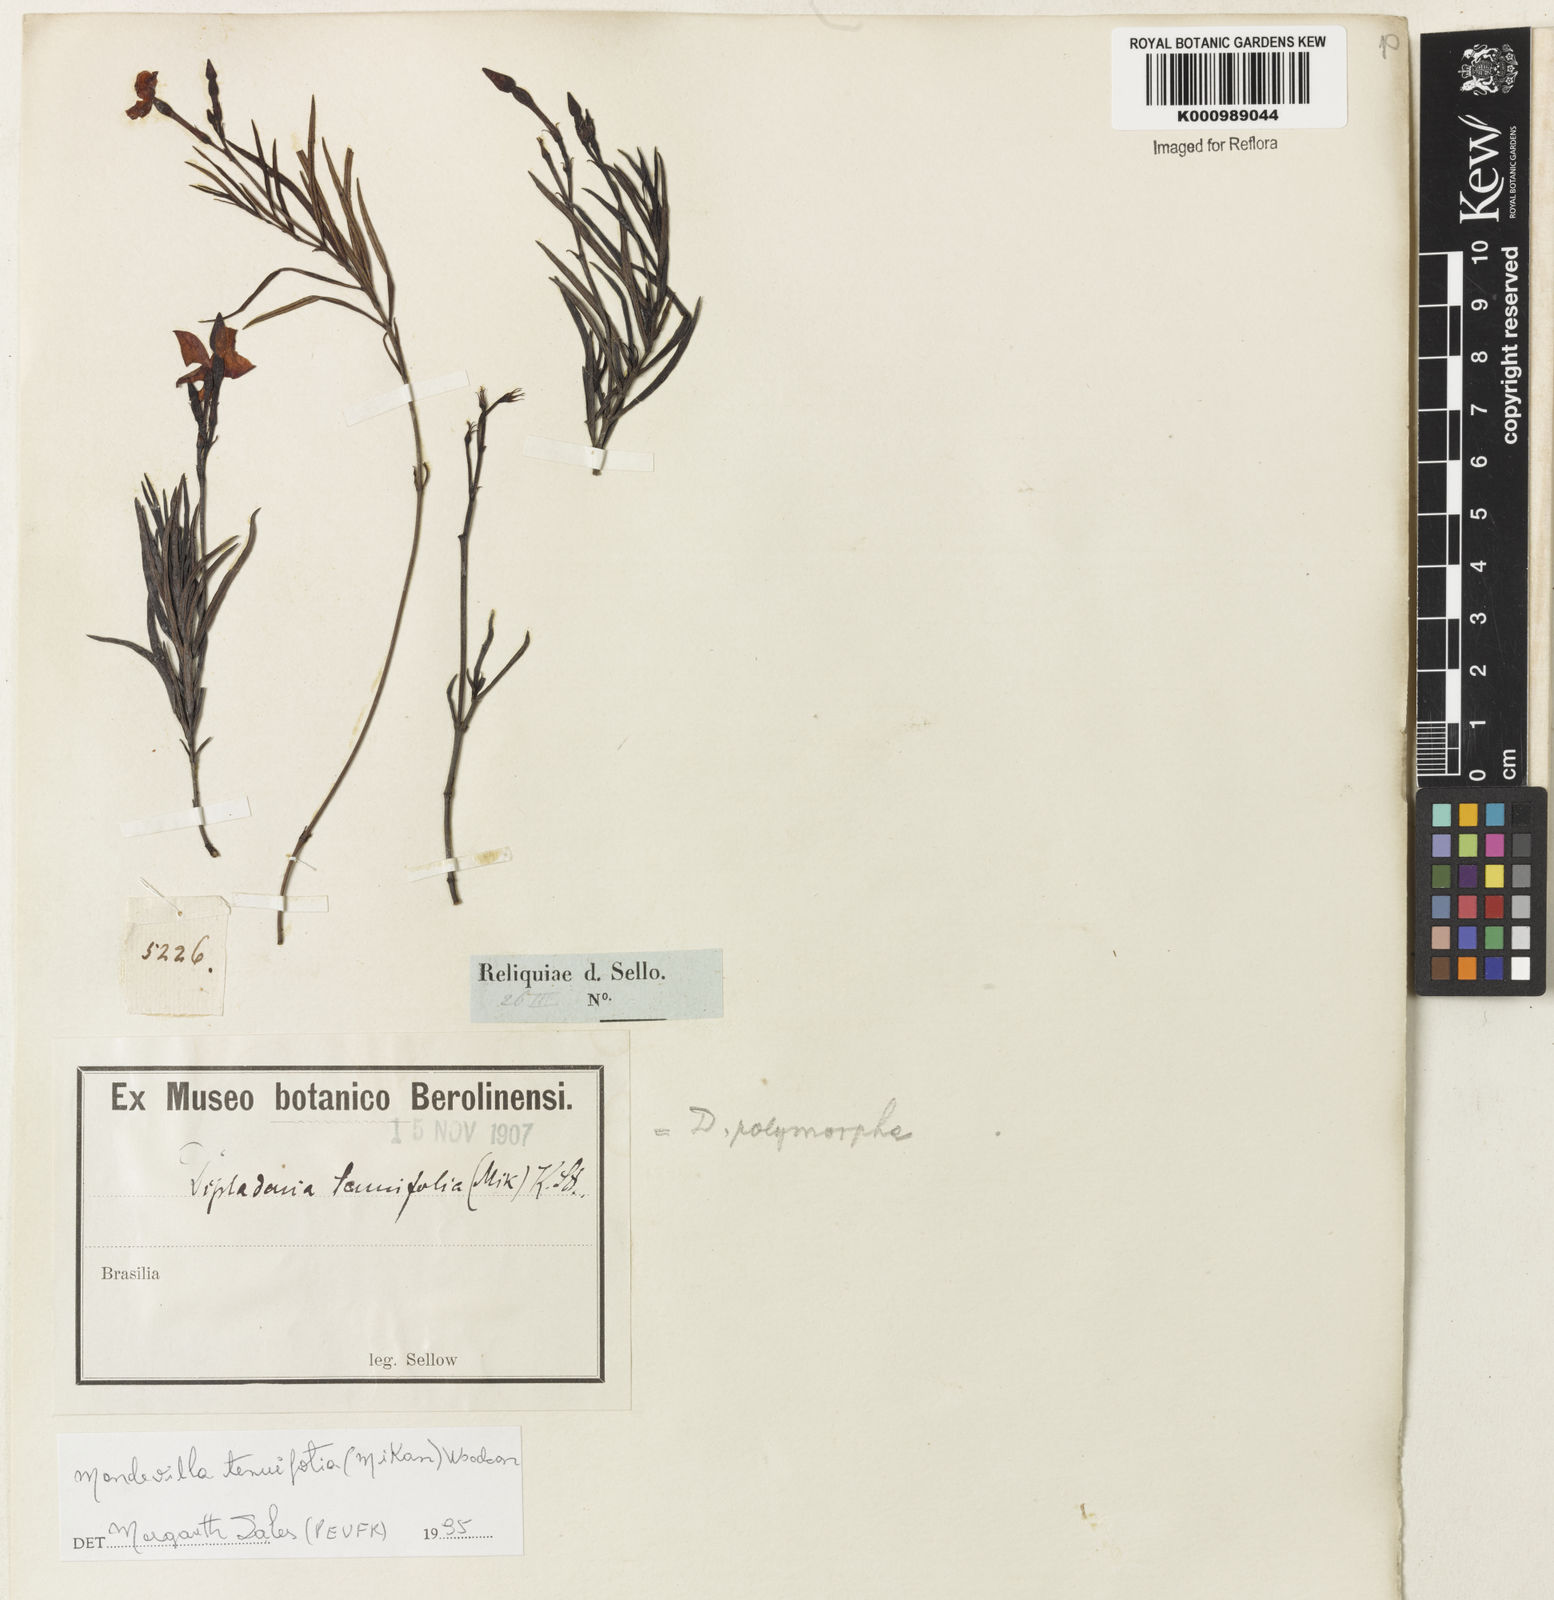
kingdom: Plantae
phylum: Tracheophyta
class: Magnoliopsida
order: Gentianales
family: Apocynaceae
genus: Mandevilla
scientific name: Mandevilla tenuifolia
